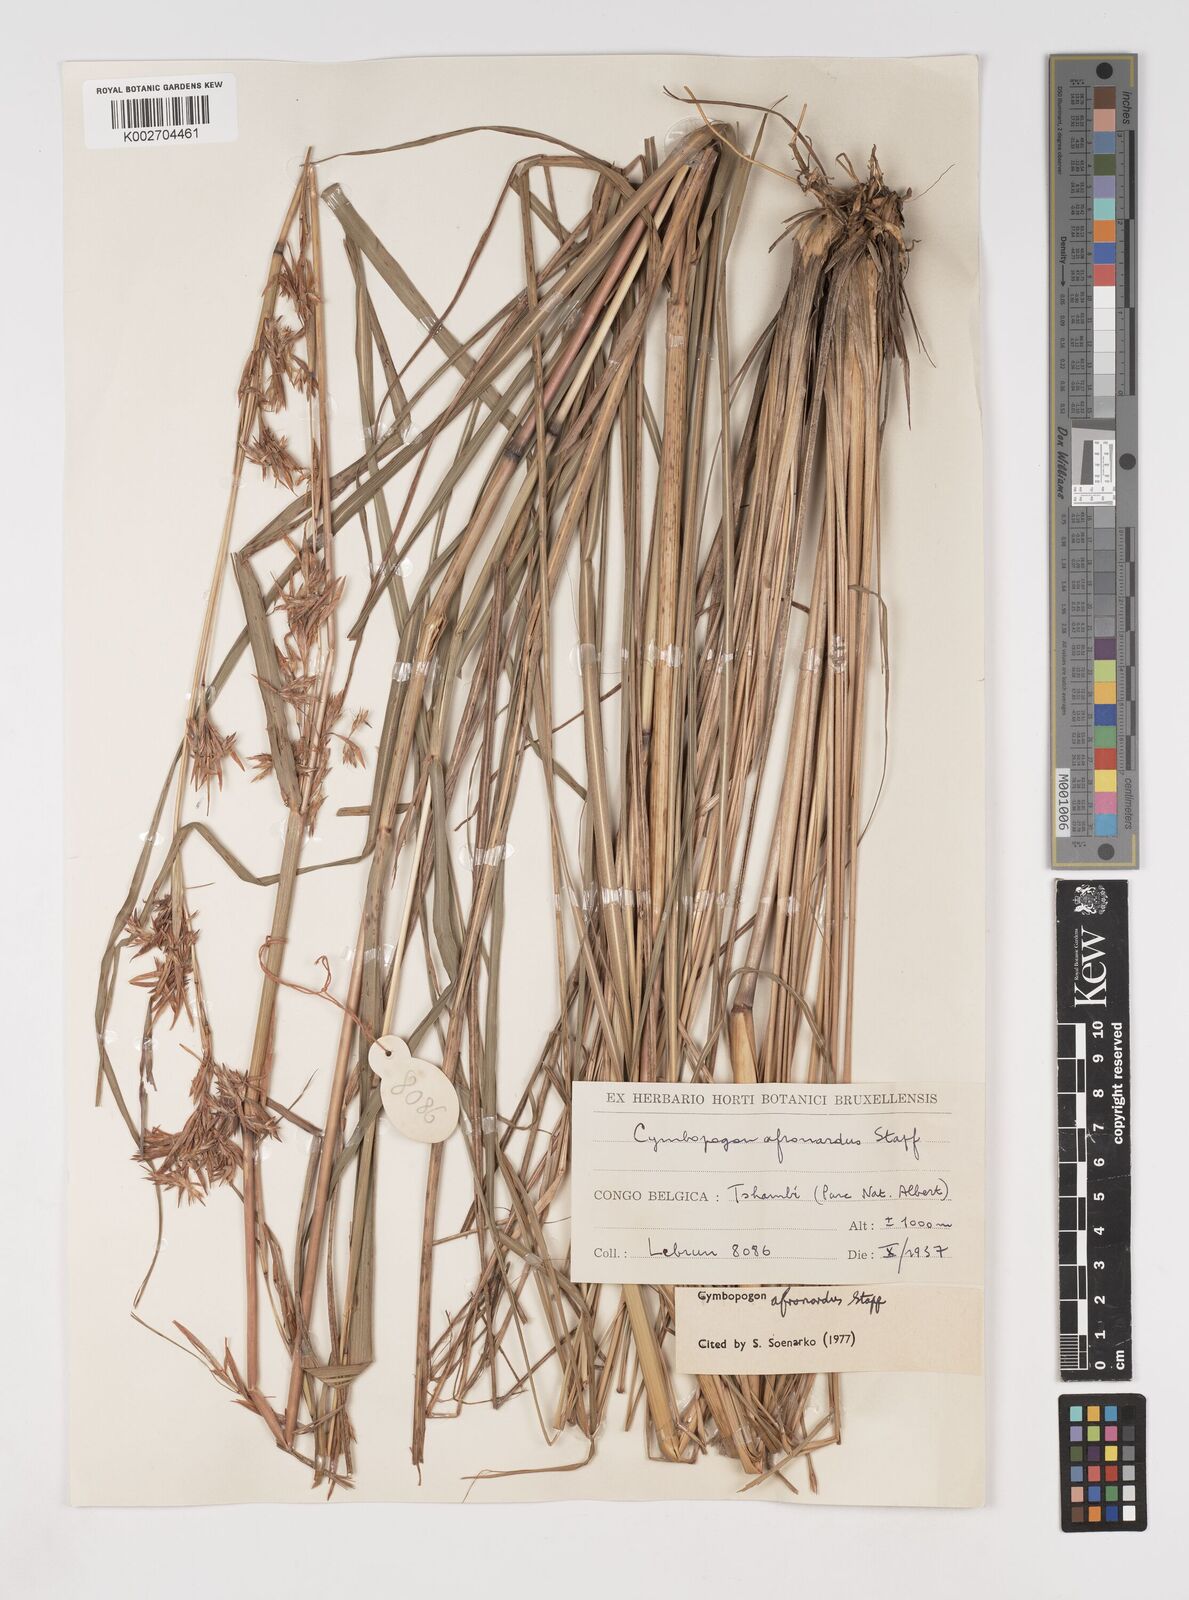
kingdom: Plantae
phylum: Tracheophyta
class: Liliopsida
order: Poales
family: Poaceae
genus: Cymbopogon
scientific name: Cymbopogon nardus
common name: Giant turpentine grass
